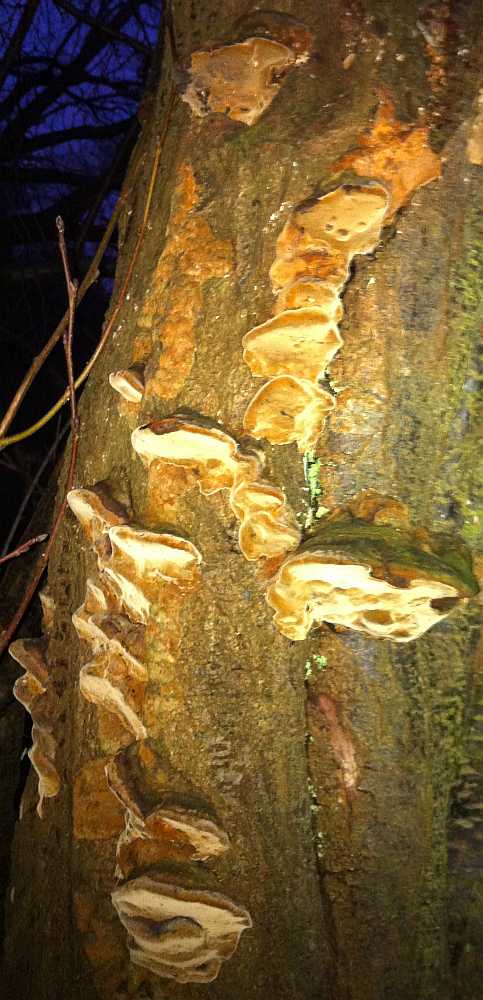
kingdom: Fungi
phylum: Basidiomycota
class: Agaricomycetes
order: Hymenochaetales
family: Hymenochaetaceae
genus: Phellinus
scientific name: Phellinus pomaceus
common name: blomme-ildporesvamp
